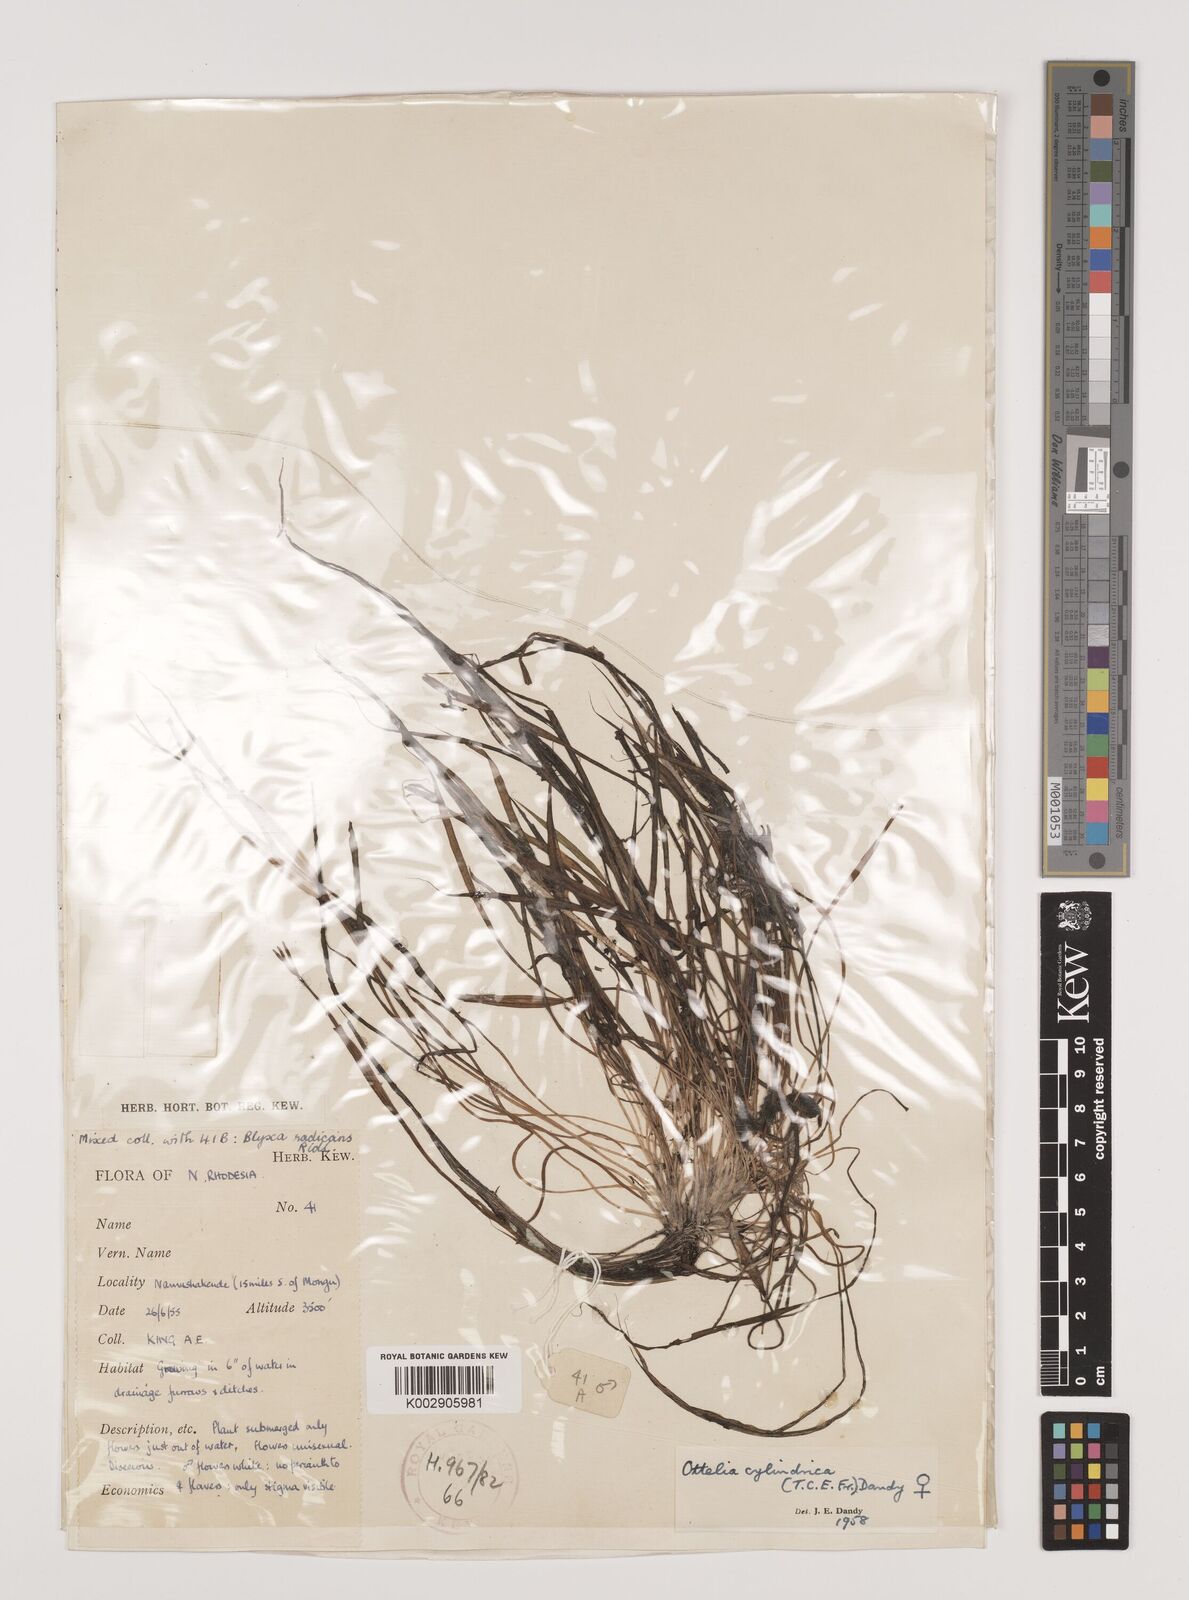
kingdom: Plantae
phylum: Tracheophyta
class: Liliopsida
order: Alismatales
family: Hydrocharitaceae
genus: Ottelia
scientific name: Ottelia cylindrica
